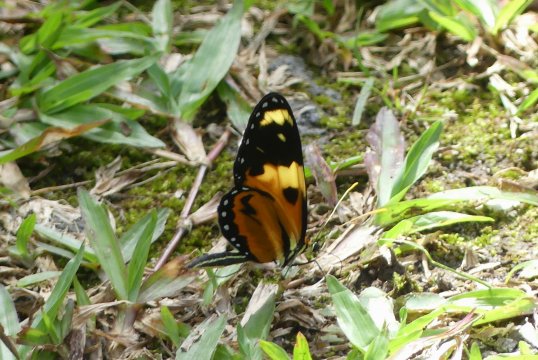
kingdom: Animalia
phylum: Arthropoda
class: Insecta
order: Lepidoptera
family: Nymphalidae
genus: Mechanitis
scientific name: Mechanitis lysimnia
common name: Lysimnia Tigerwing
